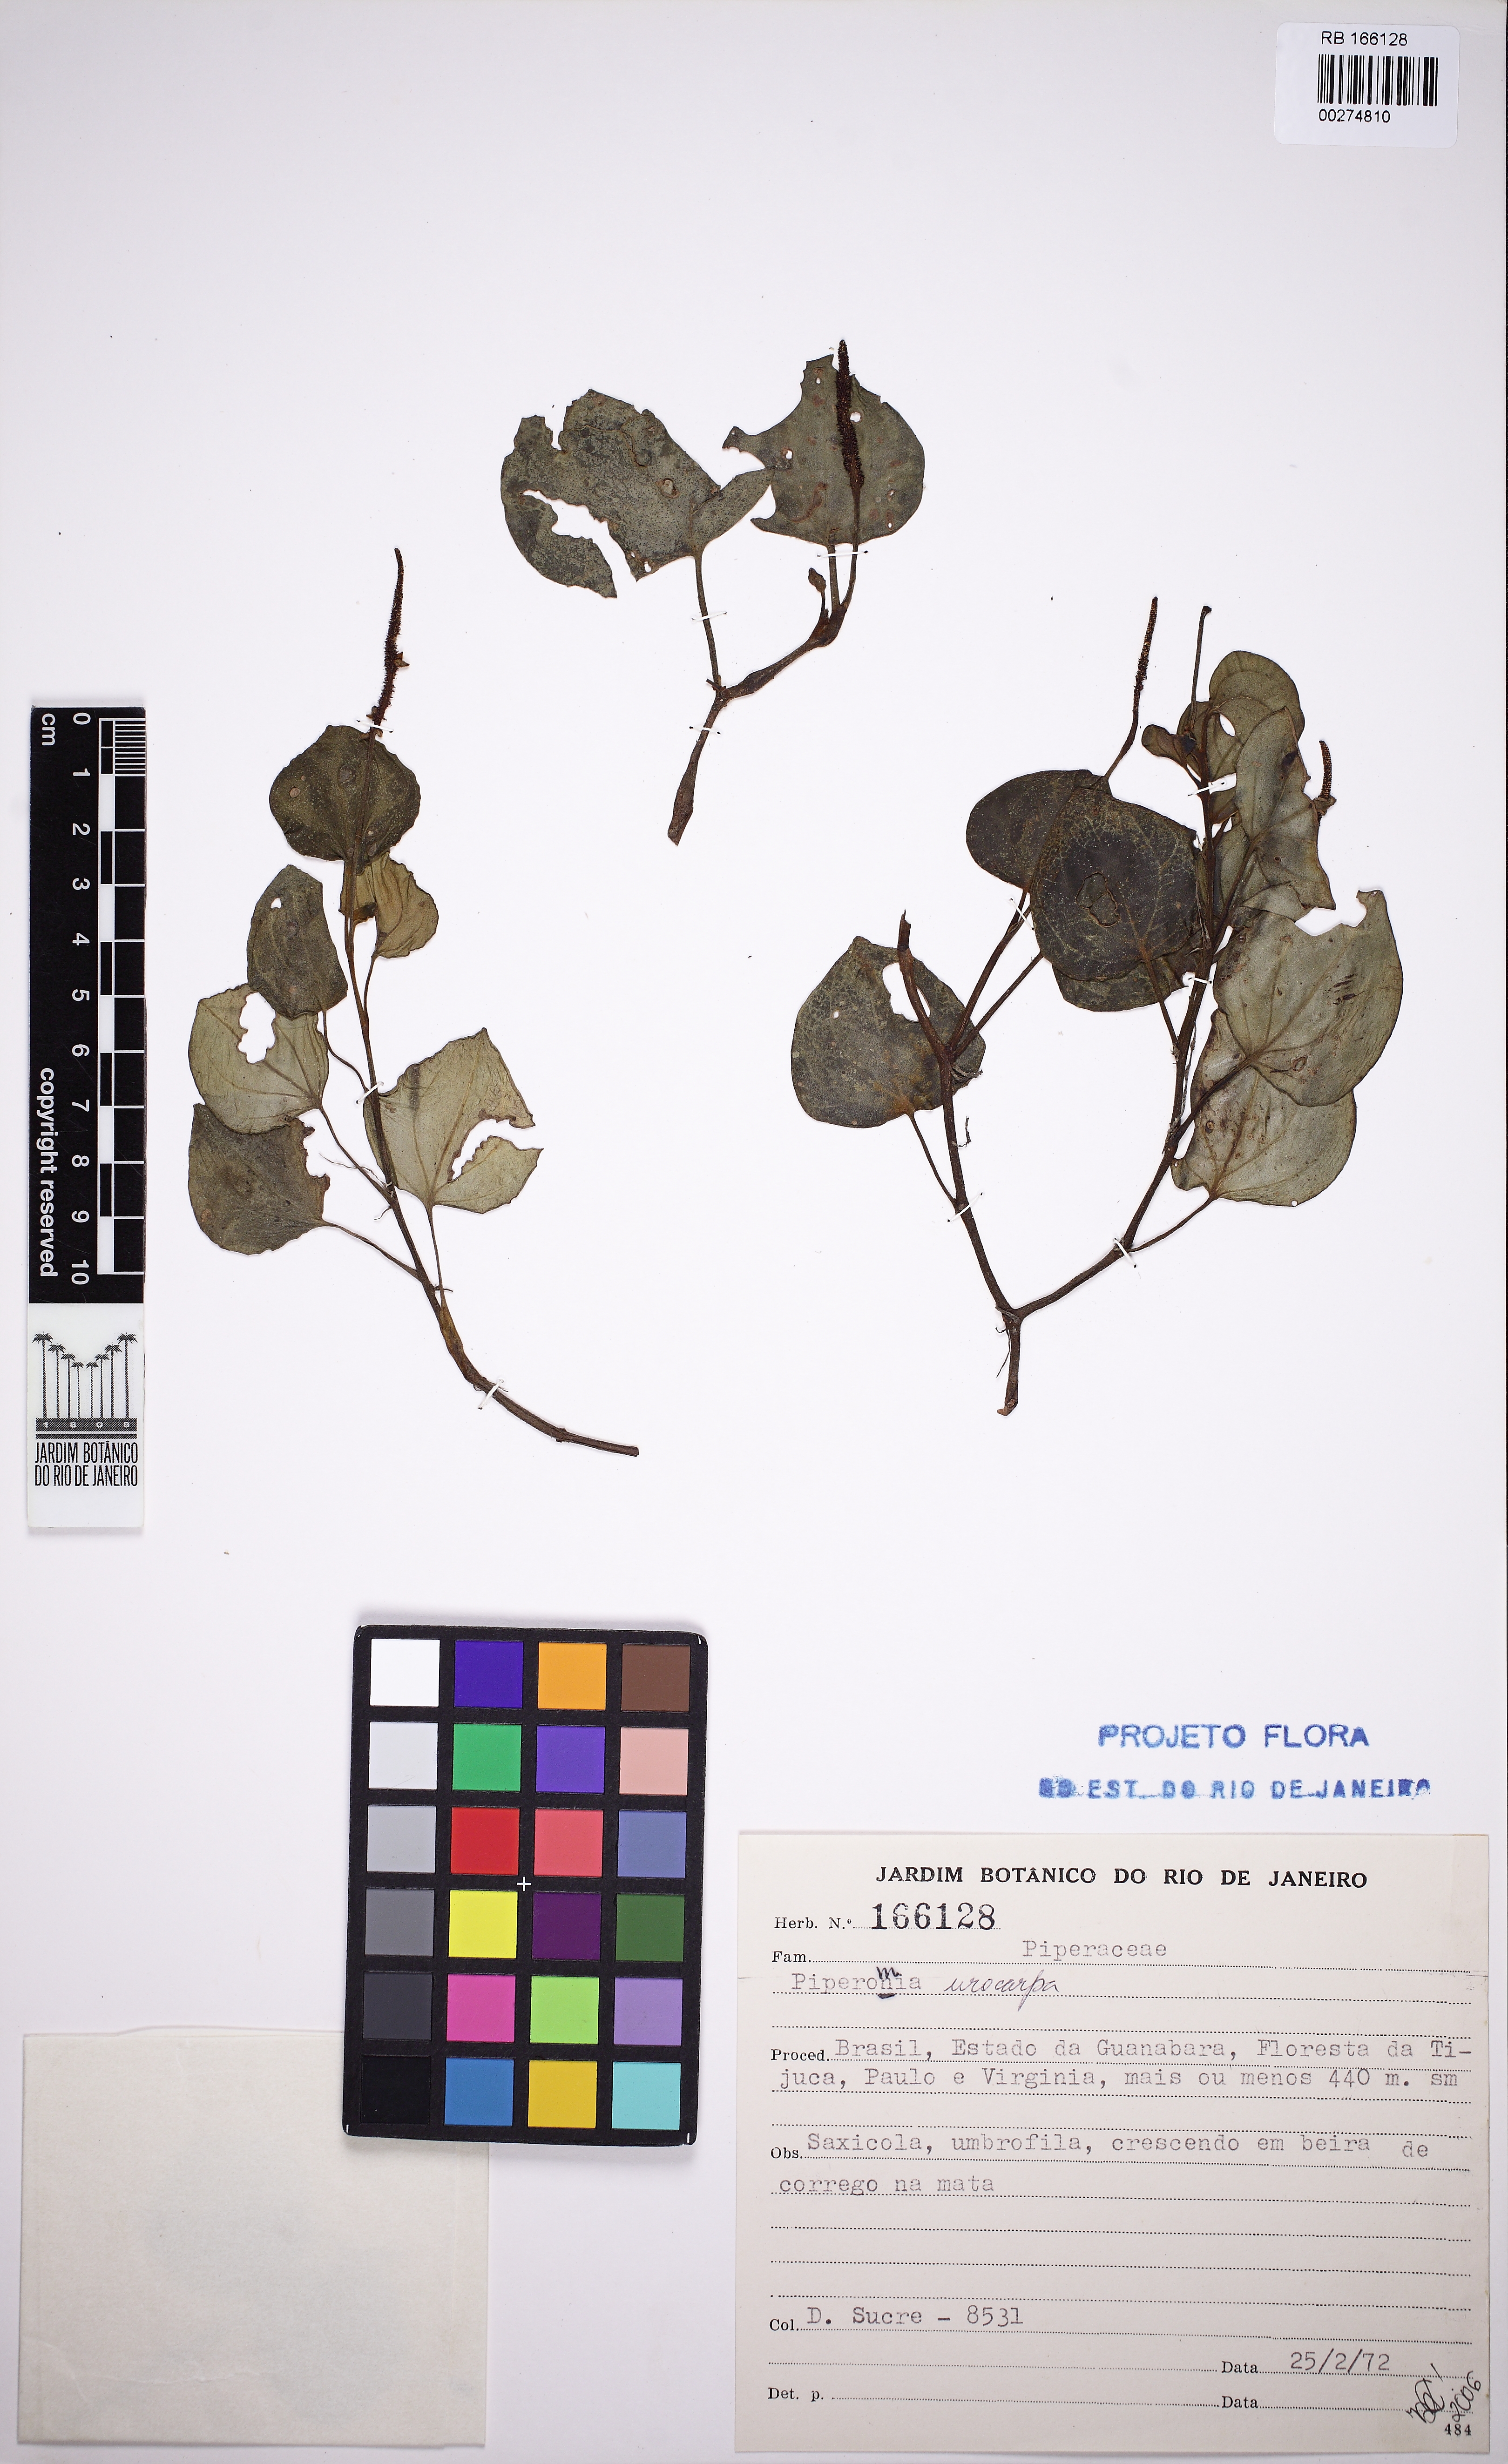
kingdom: Plantae
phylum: Tracheophyta
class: Magnoliopsida
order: Piperales
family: Piperaceae
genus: Peperomia
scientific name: Peperomia urocarpa
